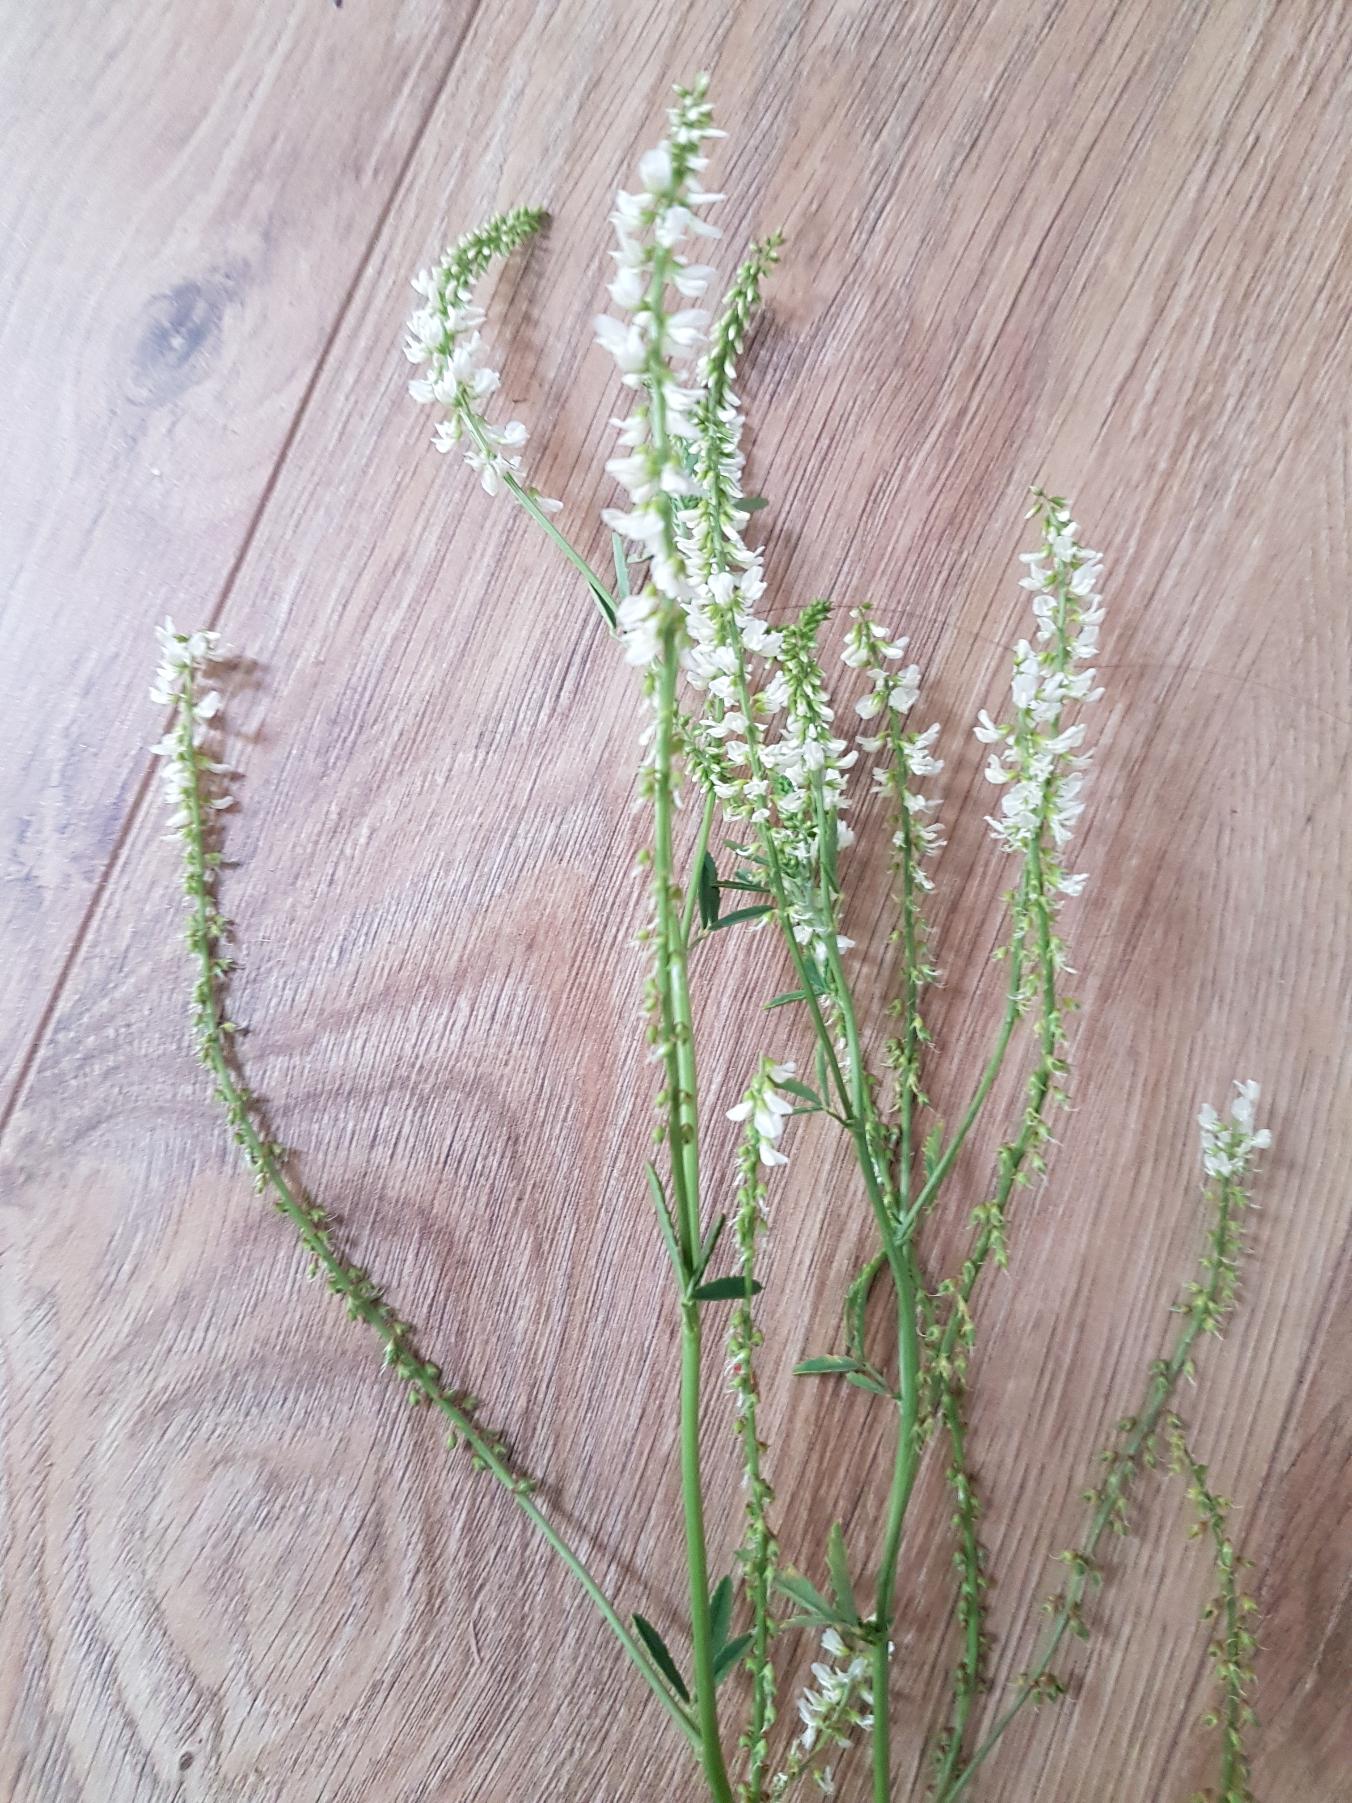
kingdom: Plantae
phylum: Tracheophyta
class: Magnoliopsida
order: Fabales
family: Fabaceae
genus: Melilotus
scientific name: Melilotus albus
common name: Hvid stenkløver
